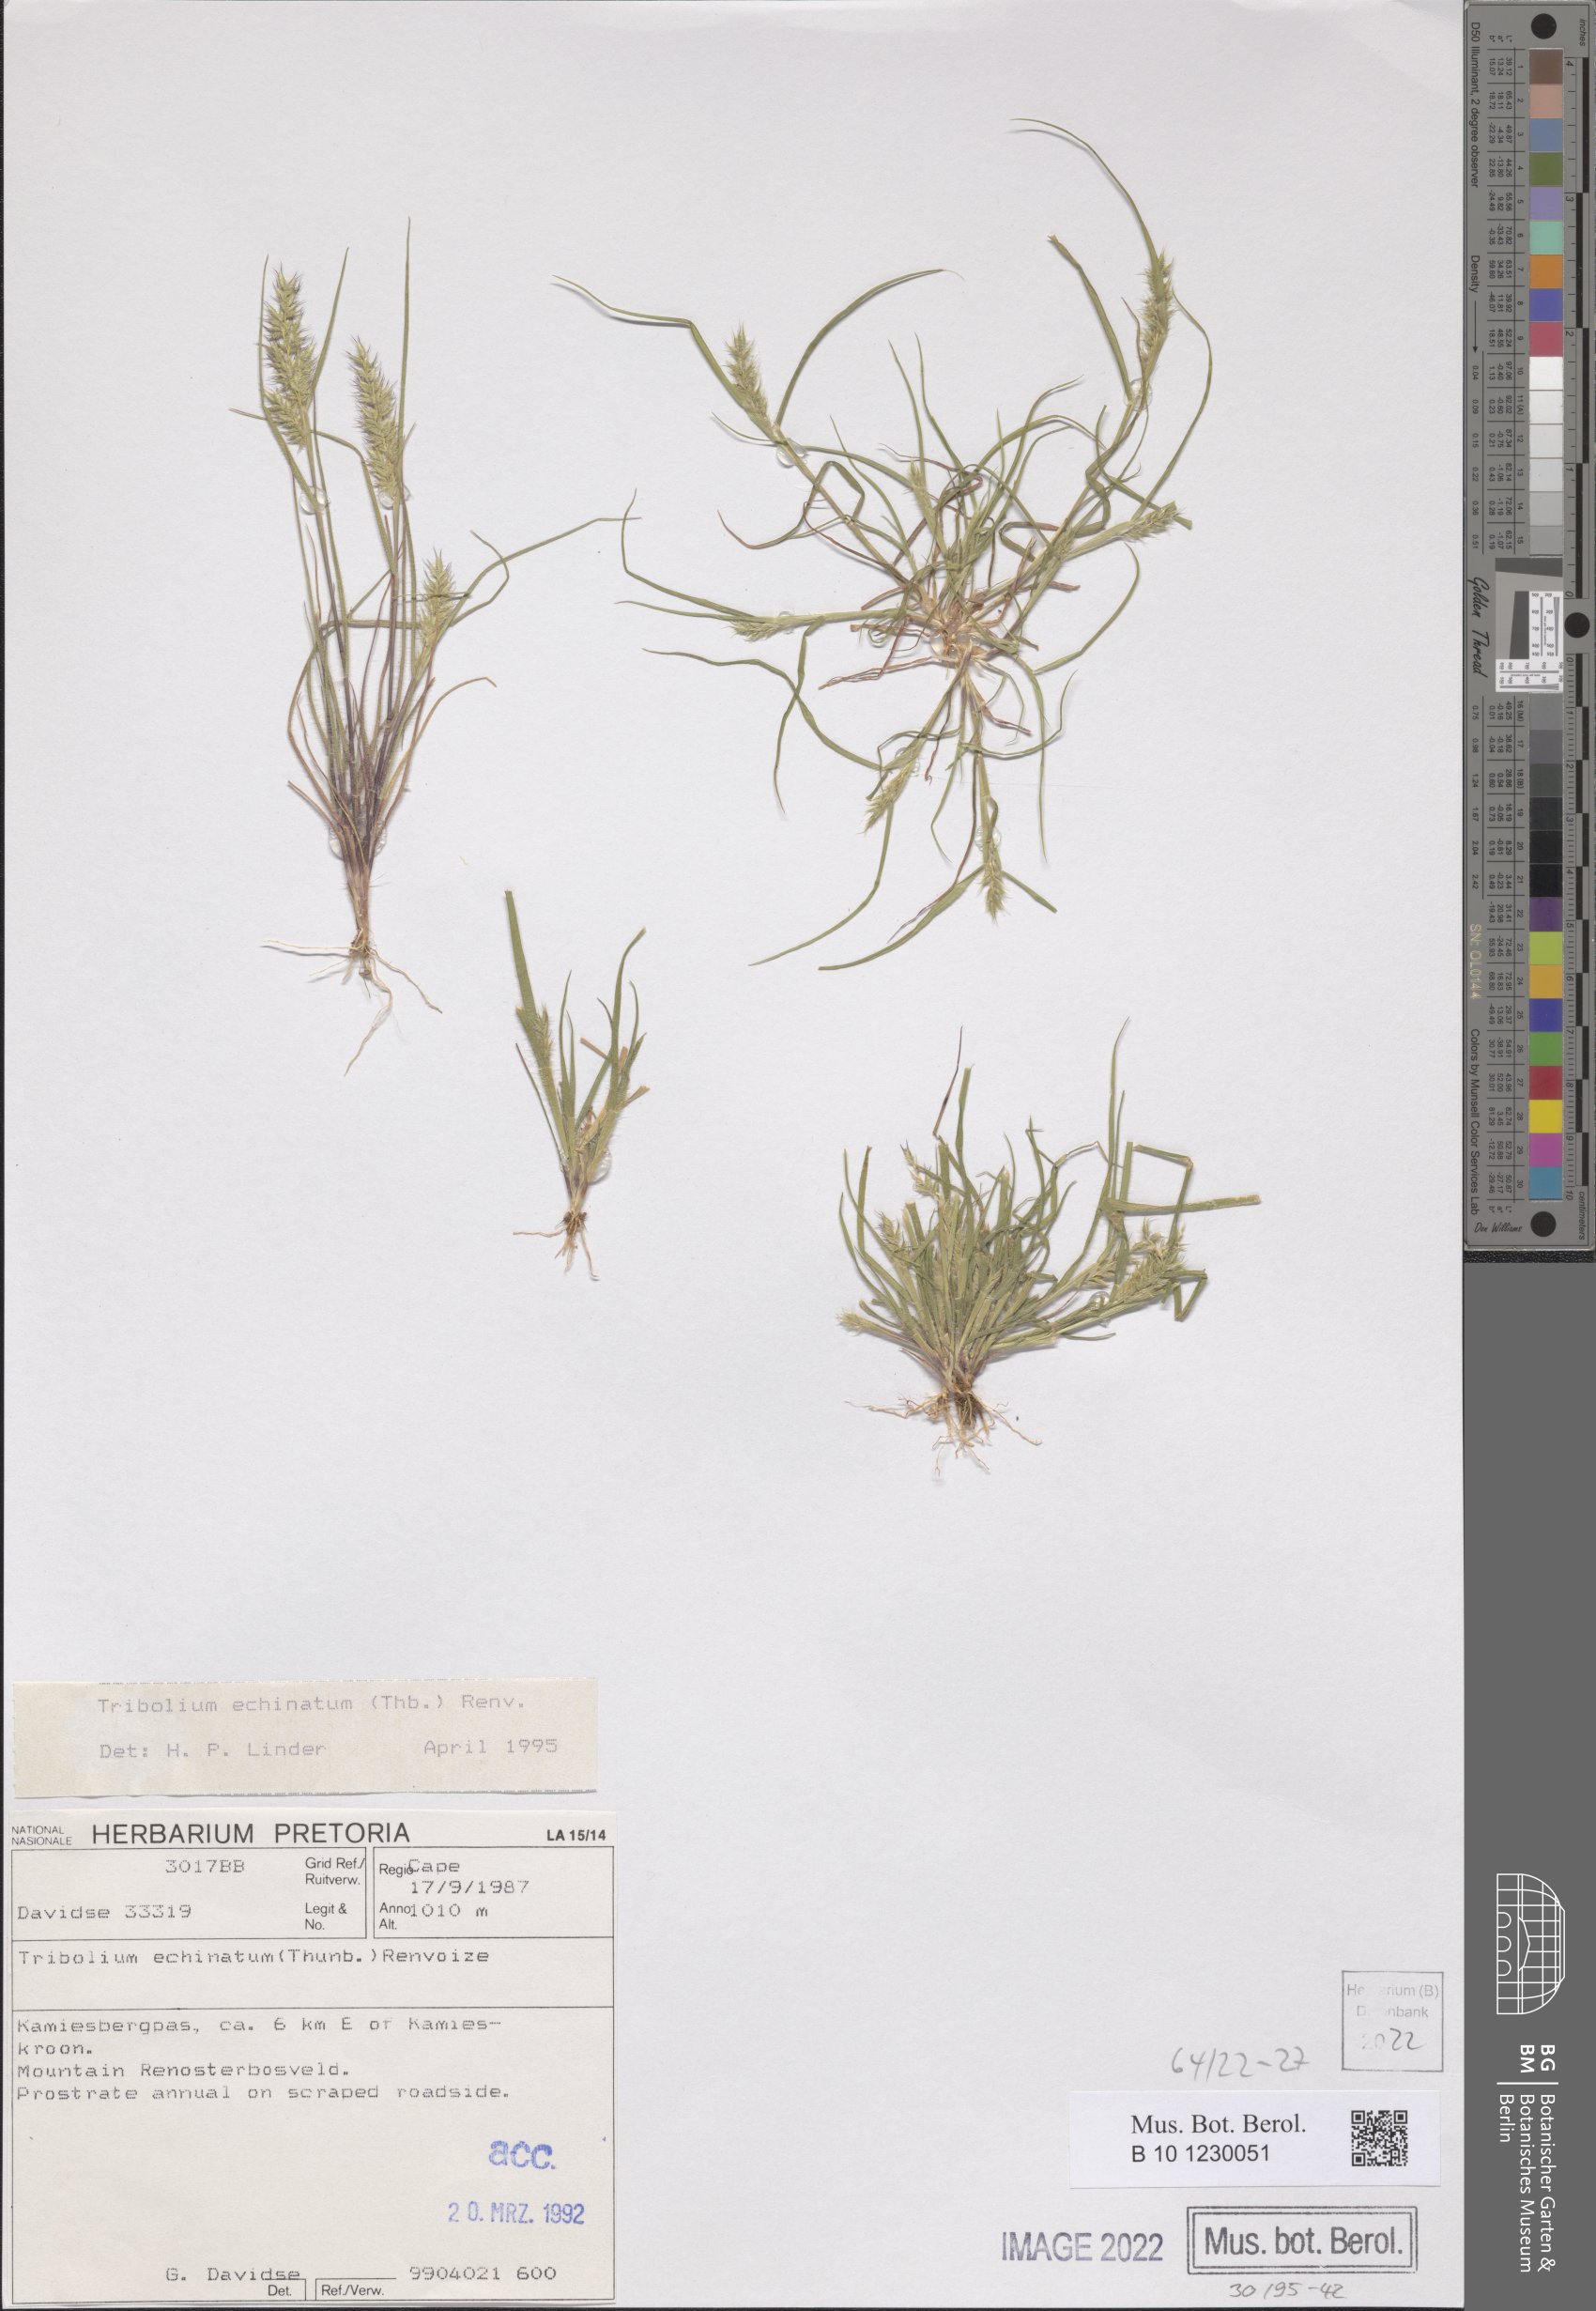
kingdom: Plantae
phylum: Tracheophyta
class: Liliopsida
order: Poales
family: Poaceae
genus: Tribolium
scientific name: Tribolium echinatum
